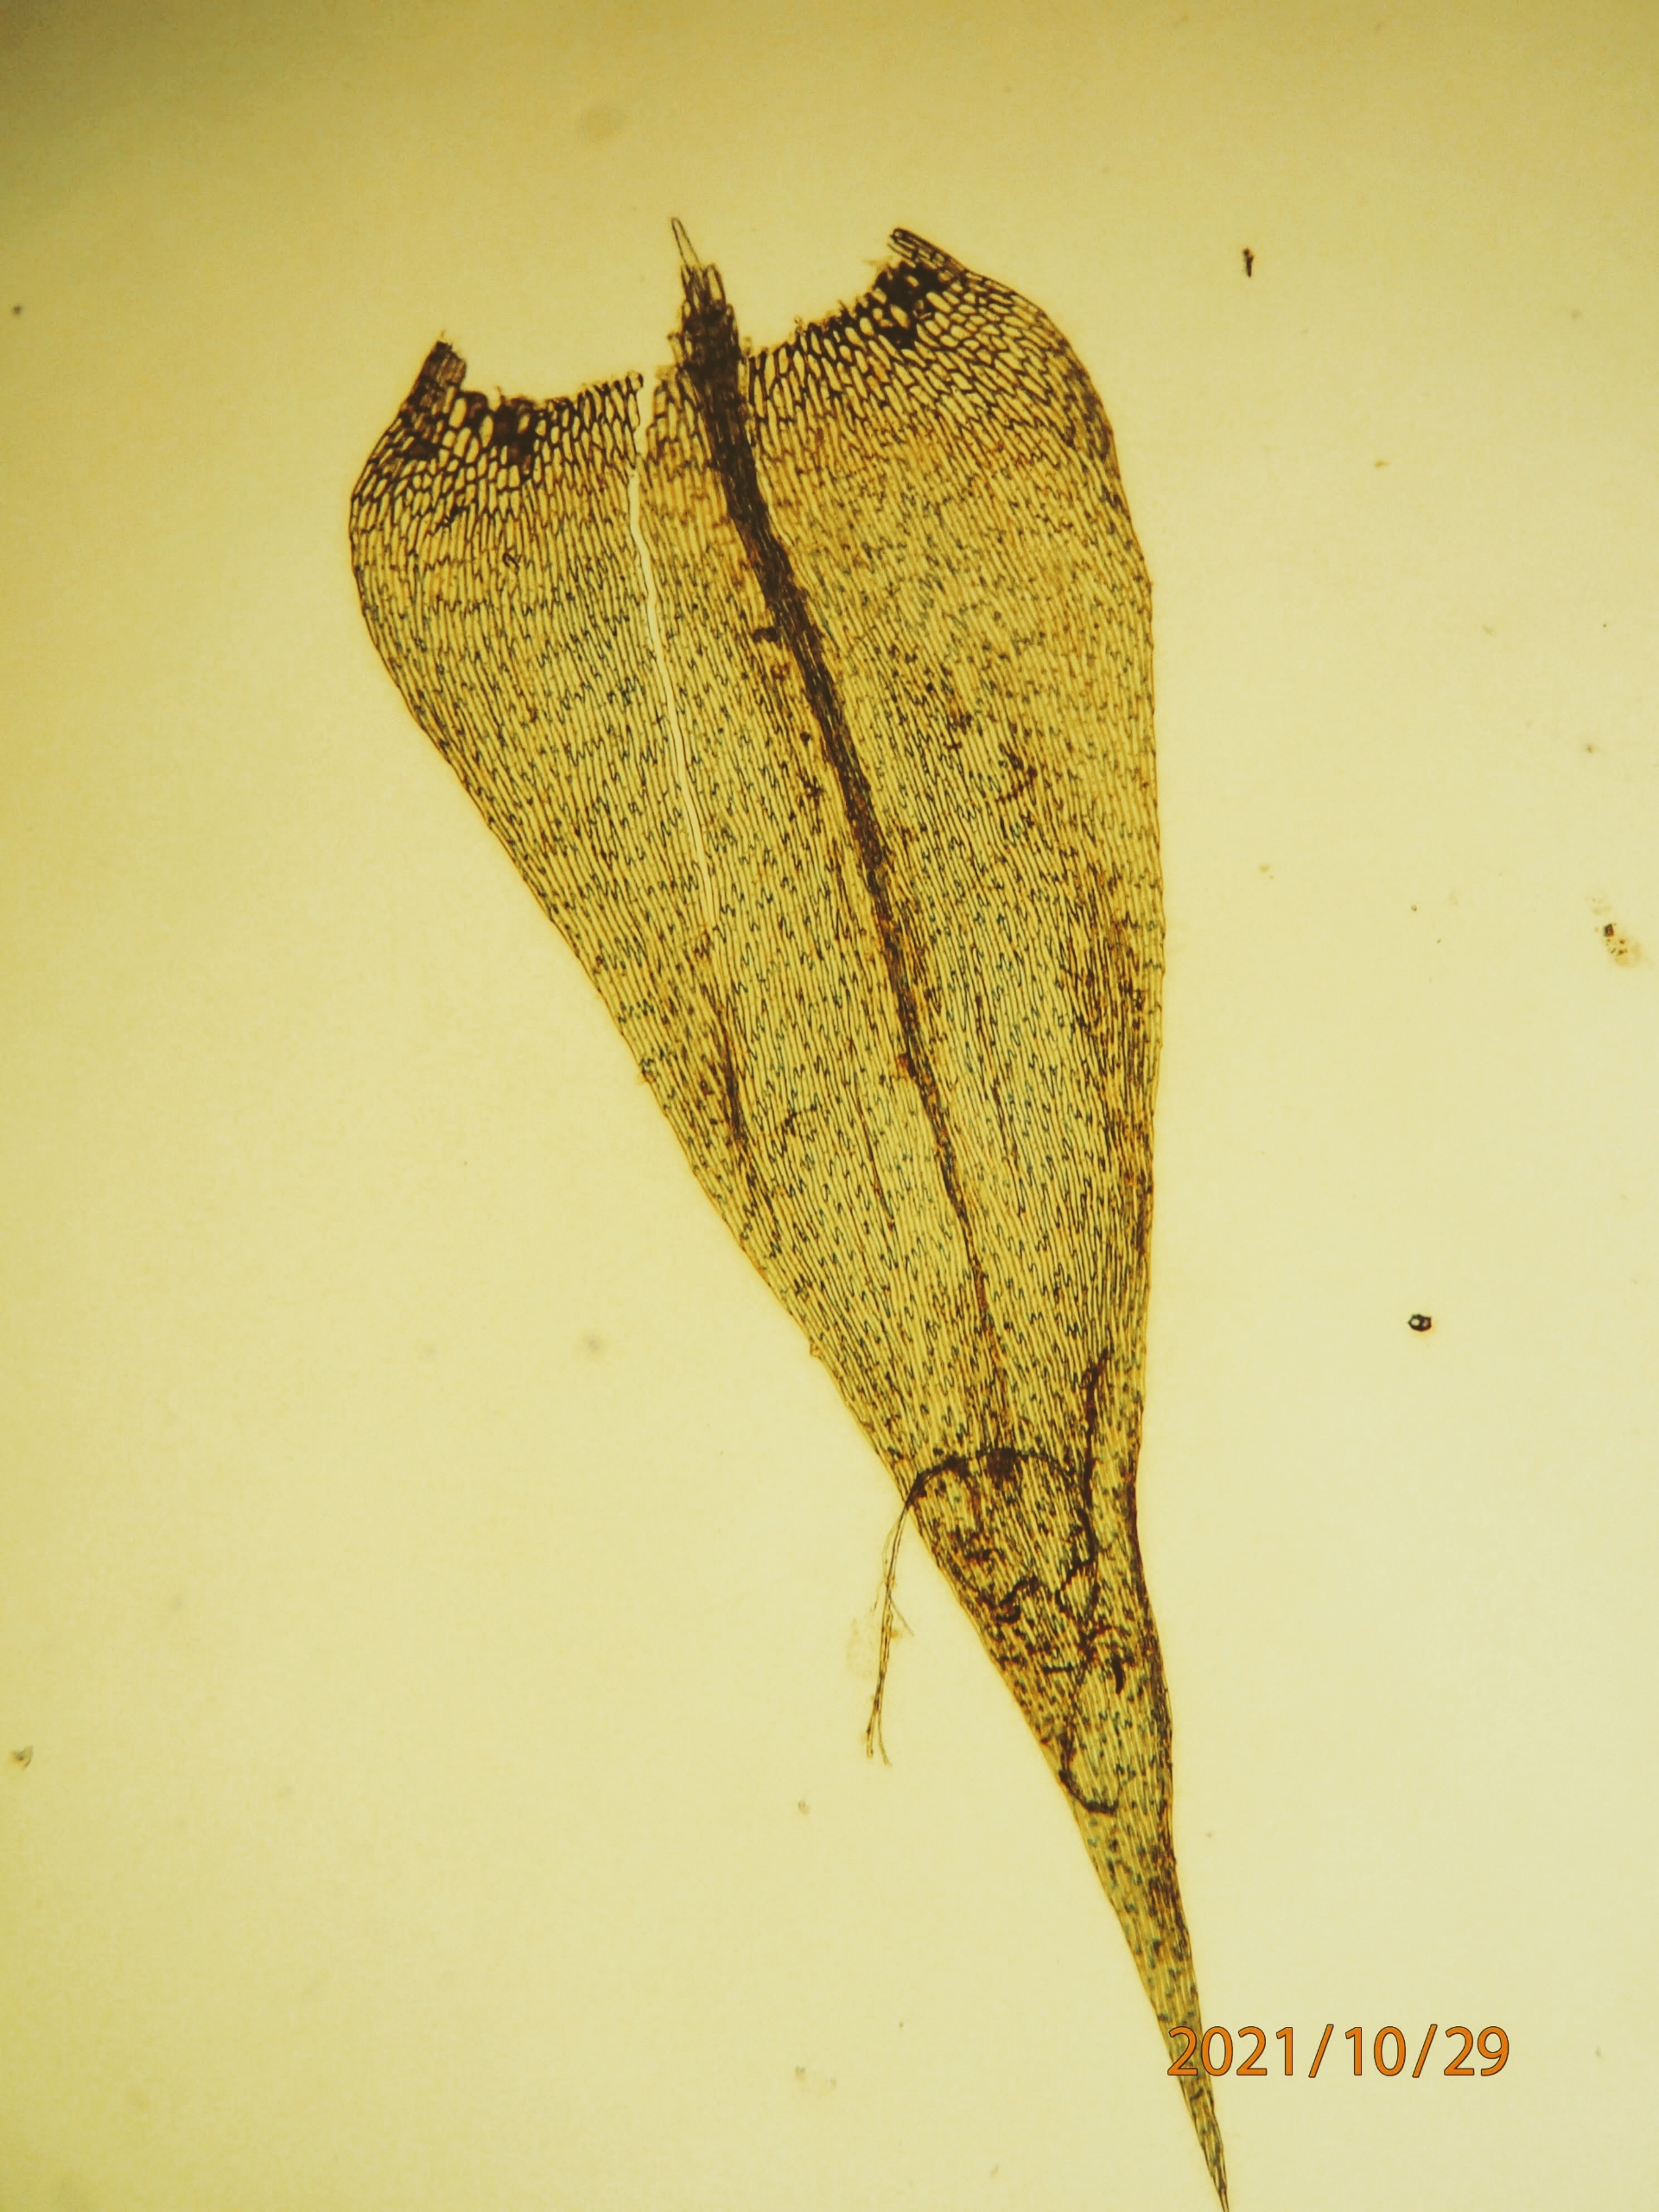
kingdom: Plantae
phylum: Bryophyta
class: Bryopsida
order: Hypnales
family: Brachytheciaceae
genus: Brachythecium
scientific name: Brachythecium mildeanum
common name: Kær-kortkapsel
